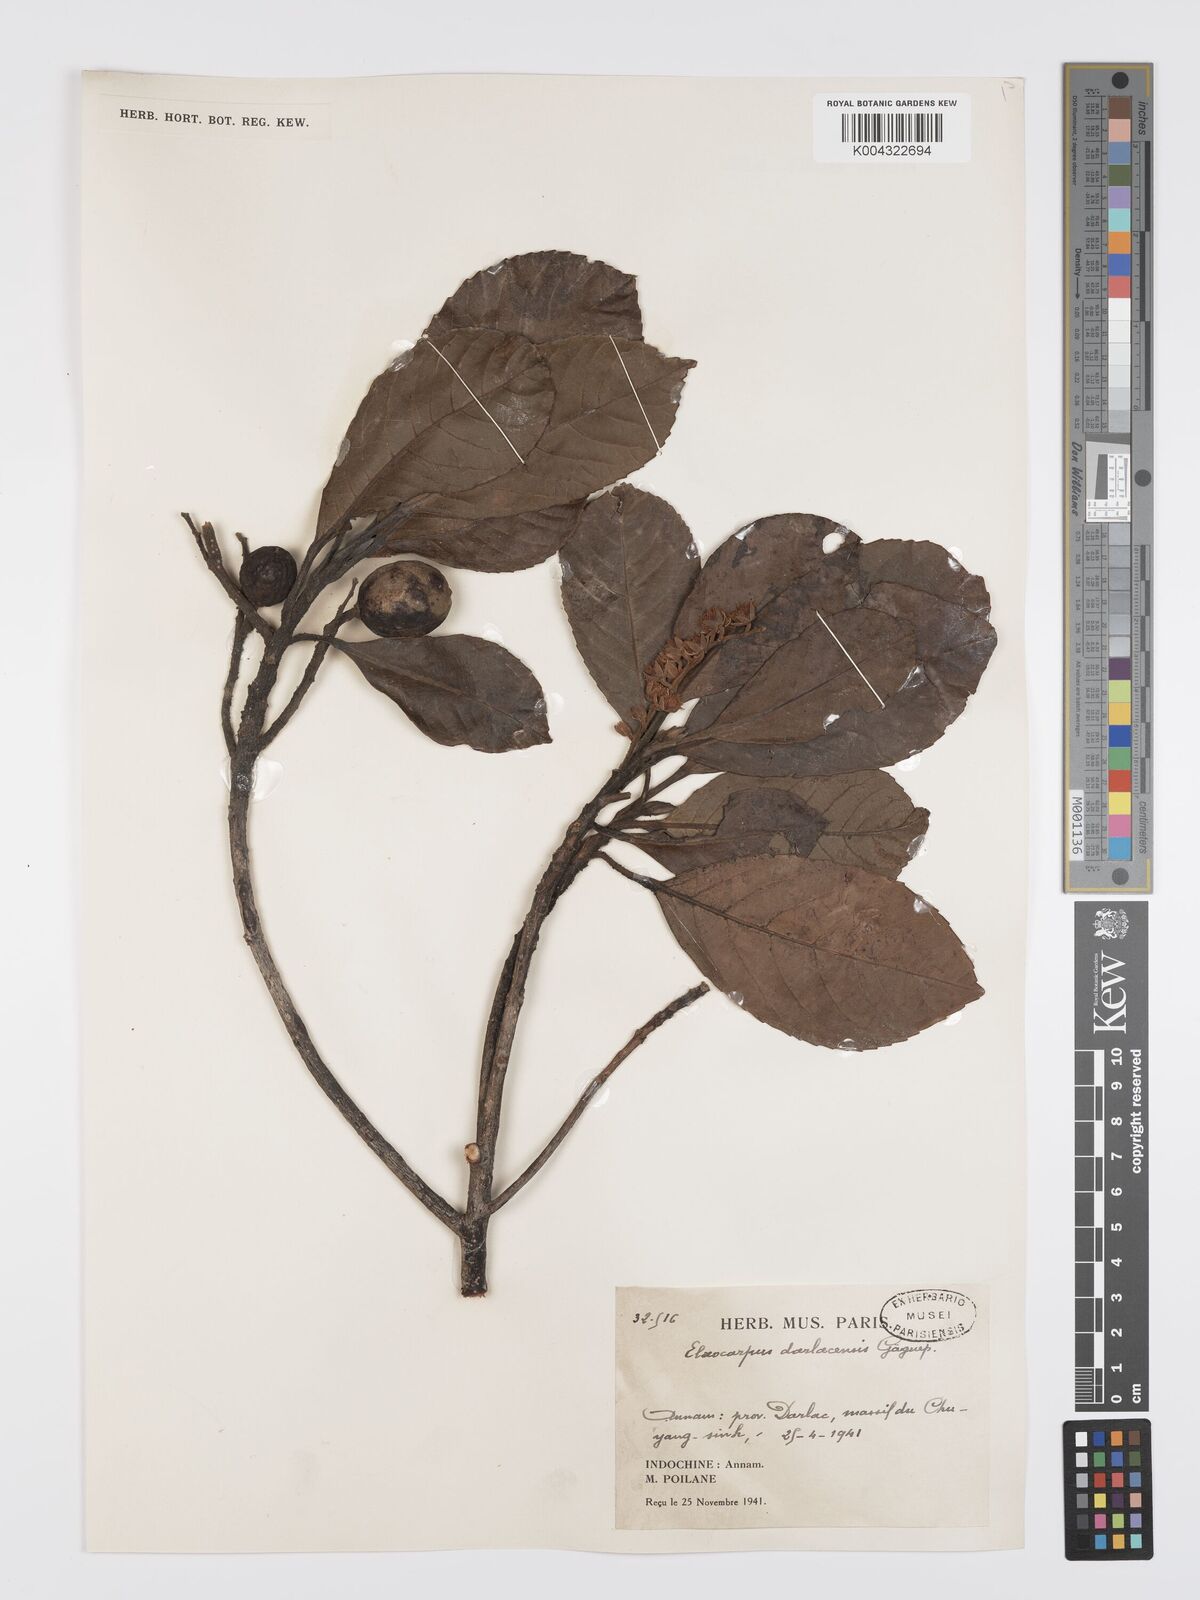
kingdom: Plantae
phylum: Tracheophyta
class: Magnoliopsida
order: Oxalidales
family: Elaeocarpaceae
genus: Elaeocarpus
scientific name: Elaeocarpus darlacensis
